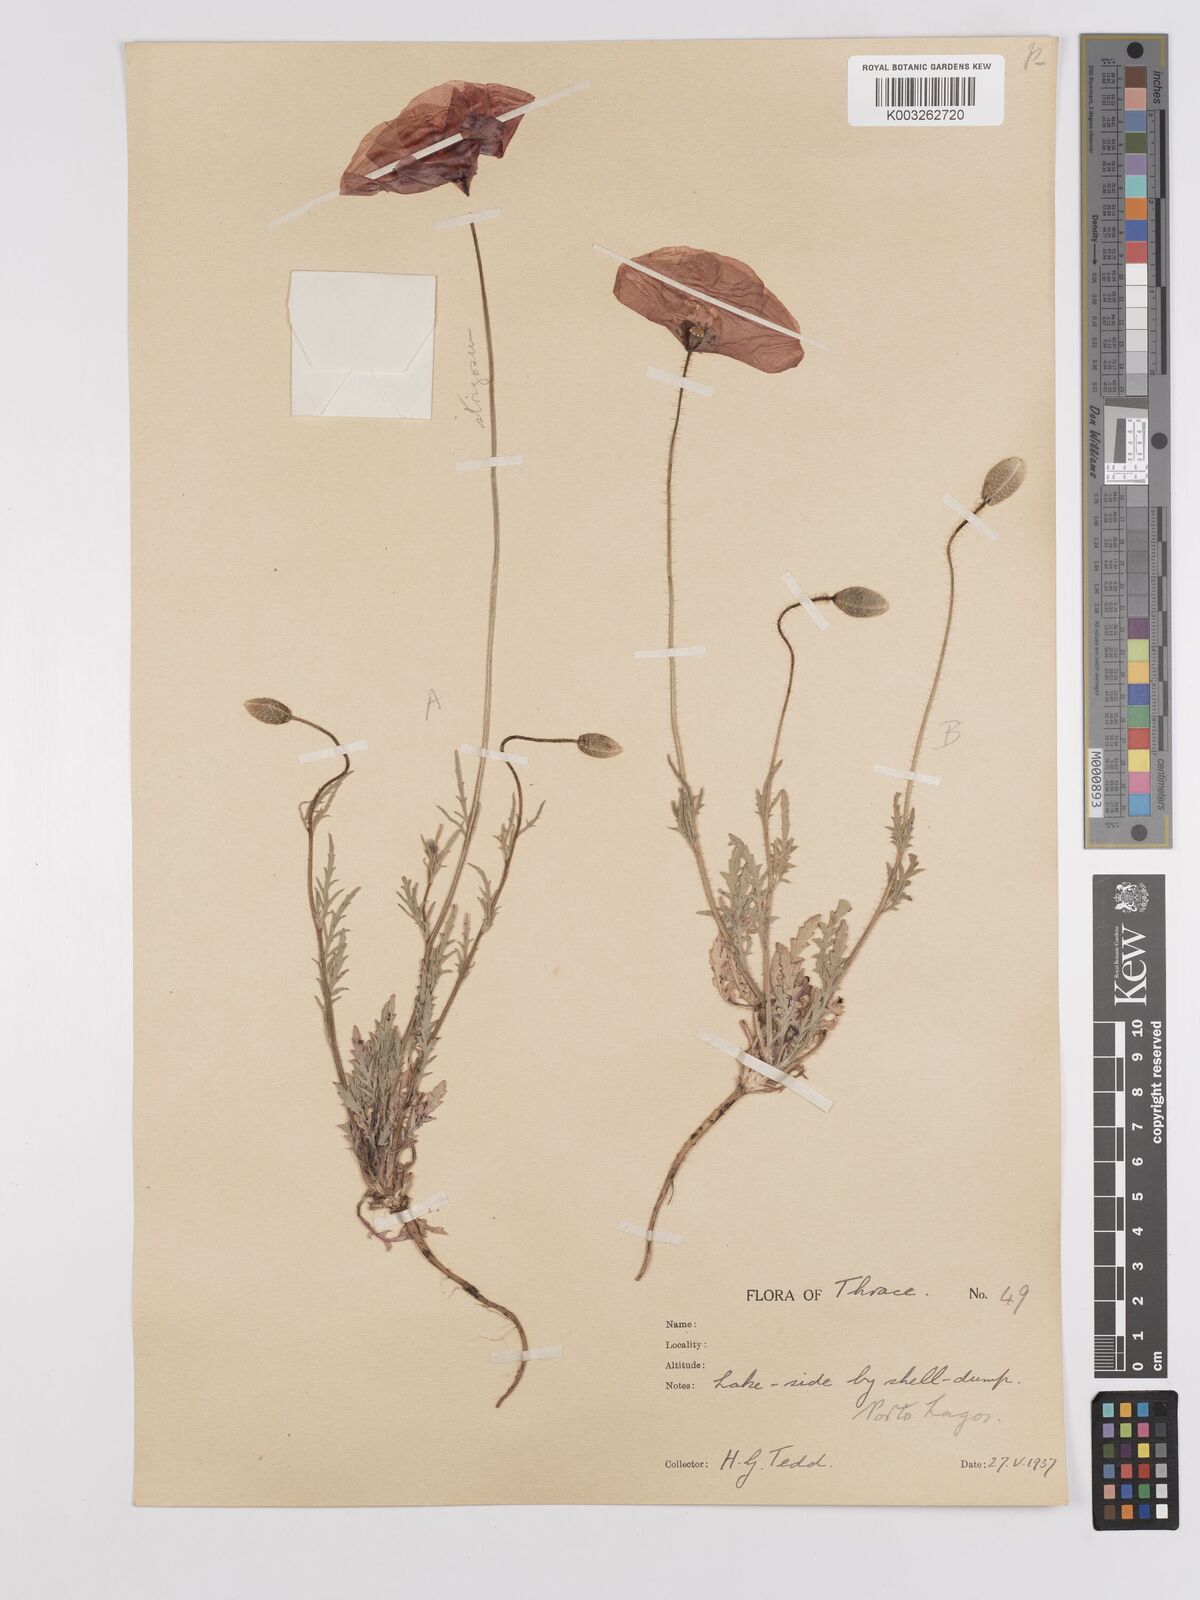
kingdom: Plantae
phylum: Tracheophyta
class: Magnoliopsida
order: Ranunculales
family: Papaveraceae
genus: Papaver
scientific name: Papaver
